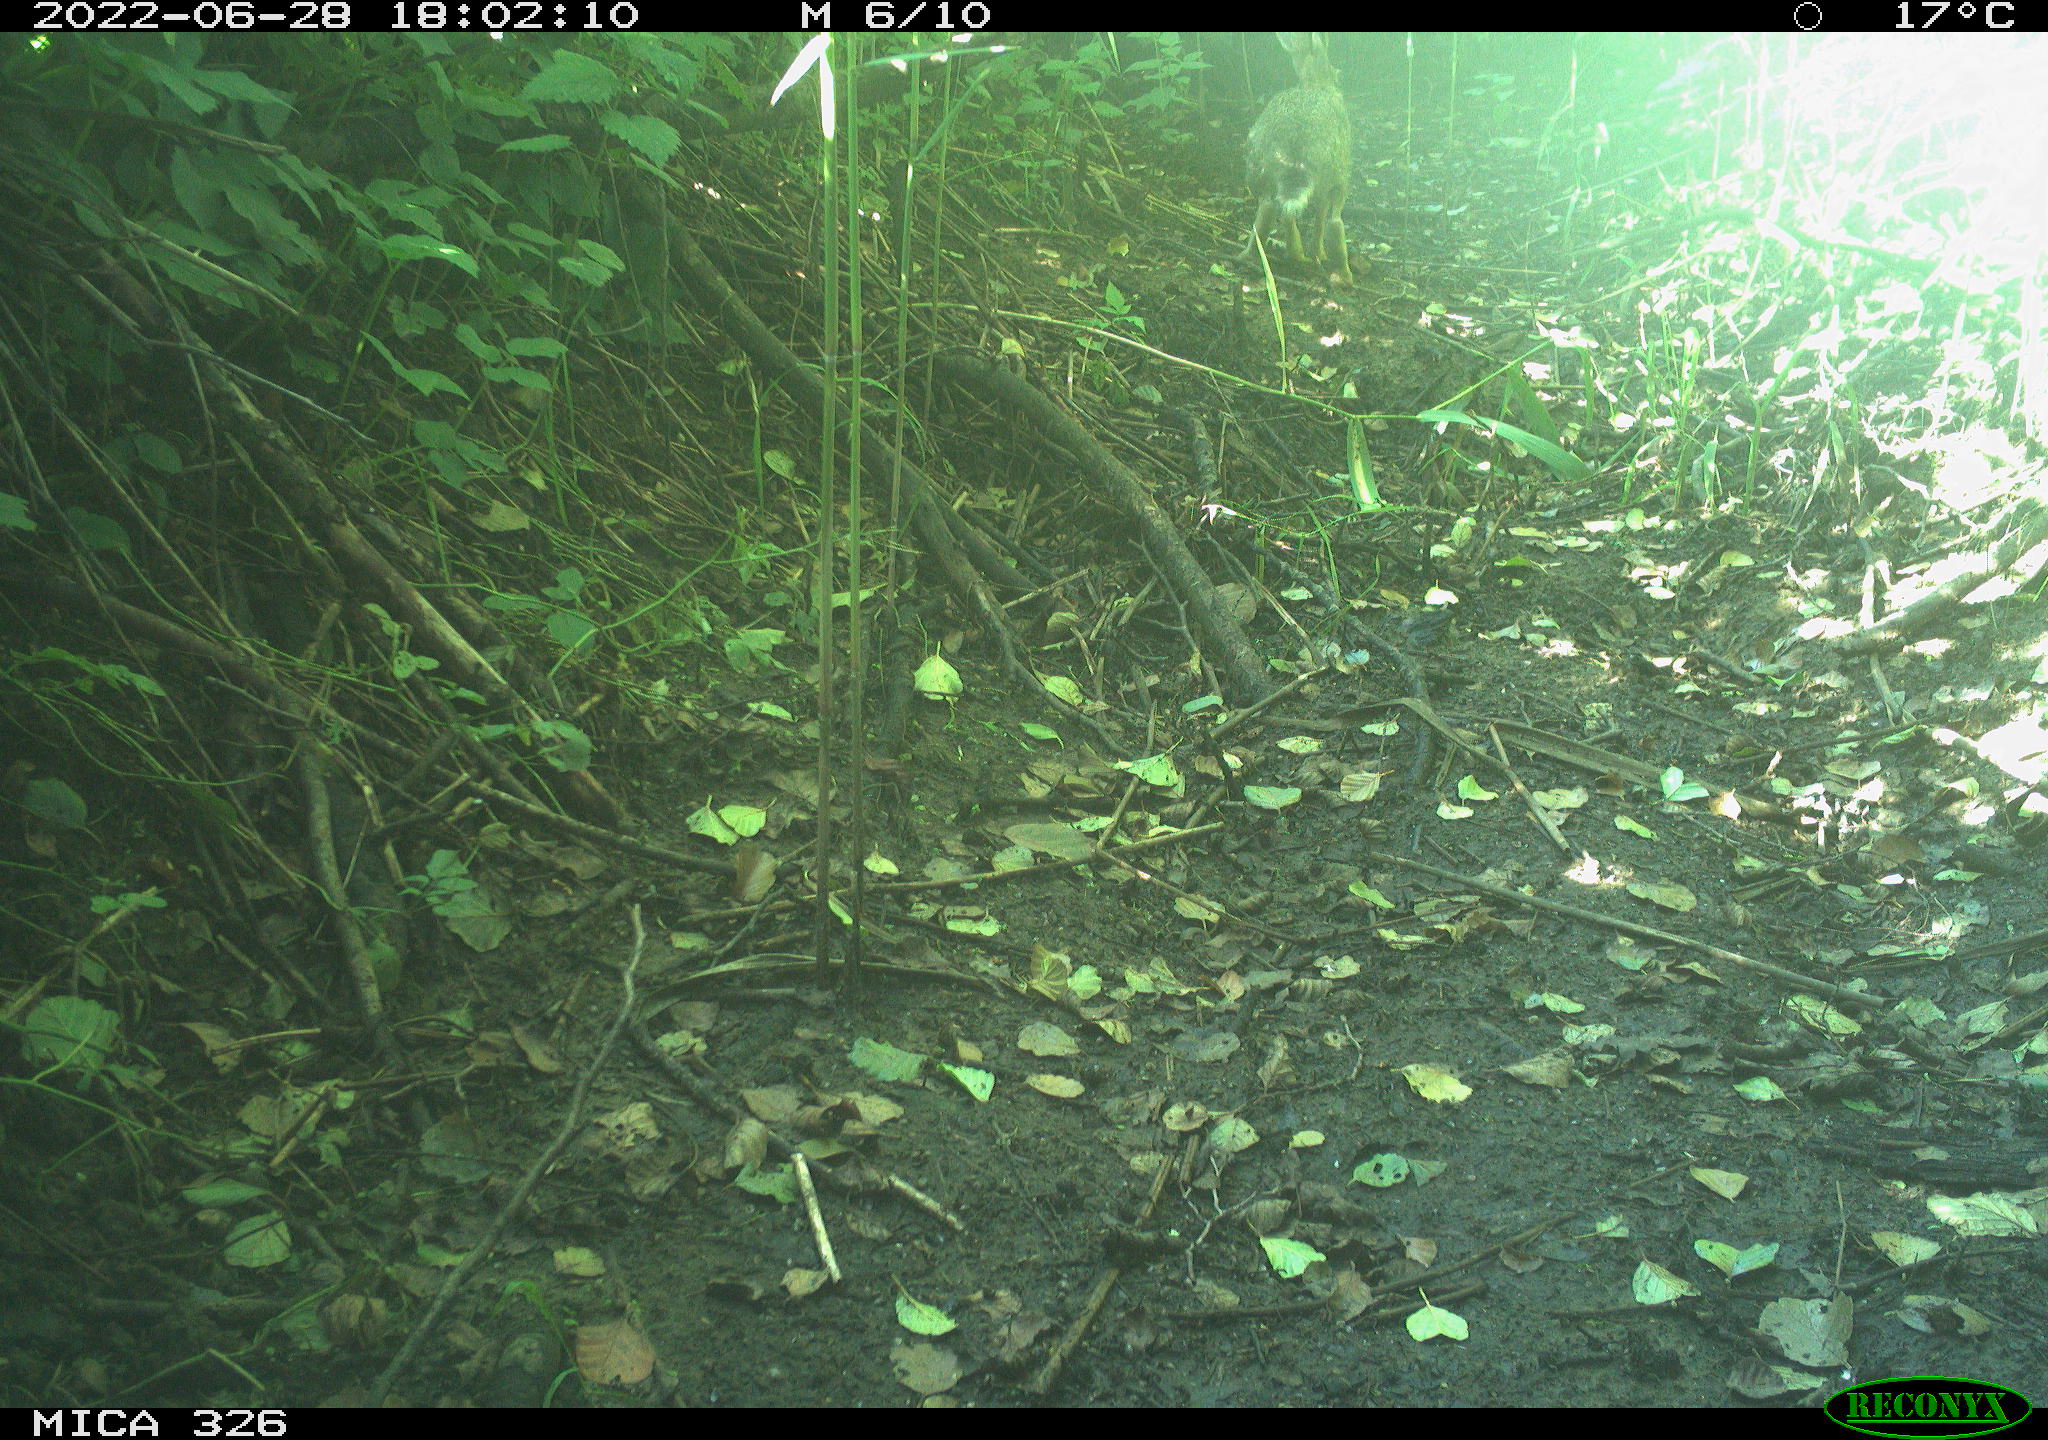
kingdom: Animalia
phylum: Chordata
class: Mammalia
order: Lagomorpha
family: Leporidae
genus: Lepus
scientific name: Lepus europaeus
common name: European hare
